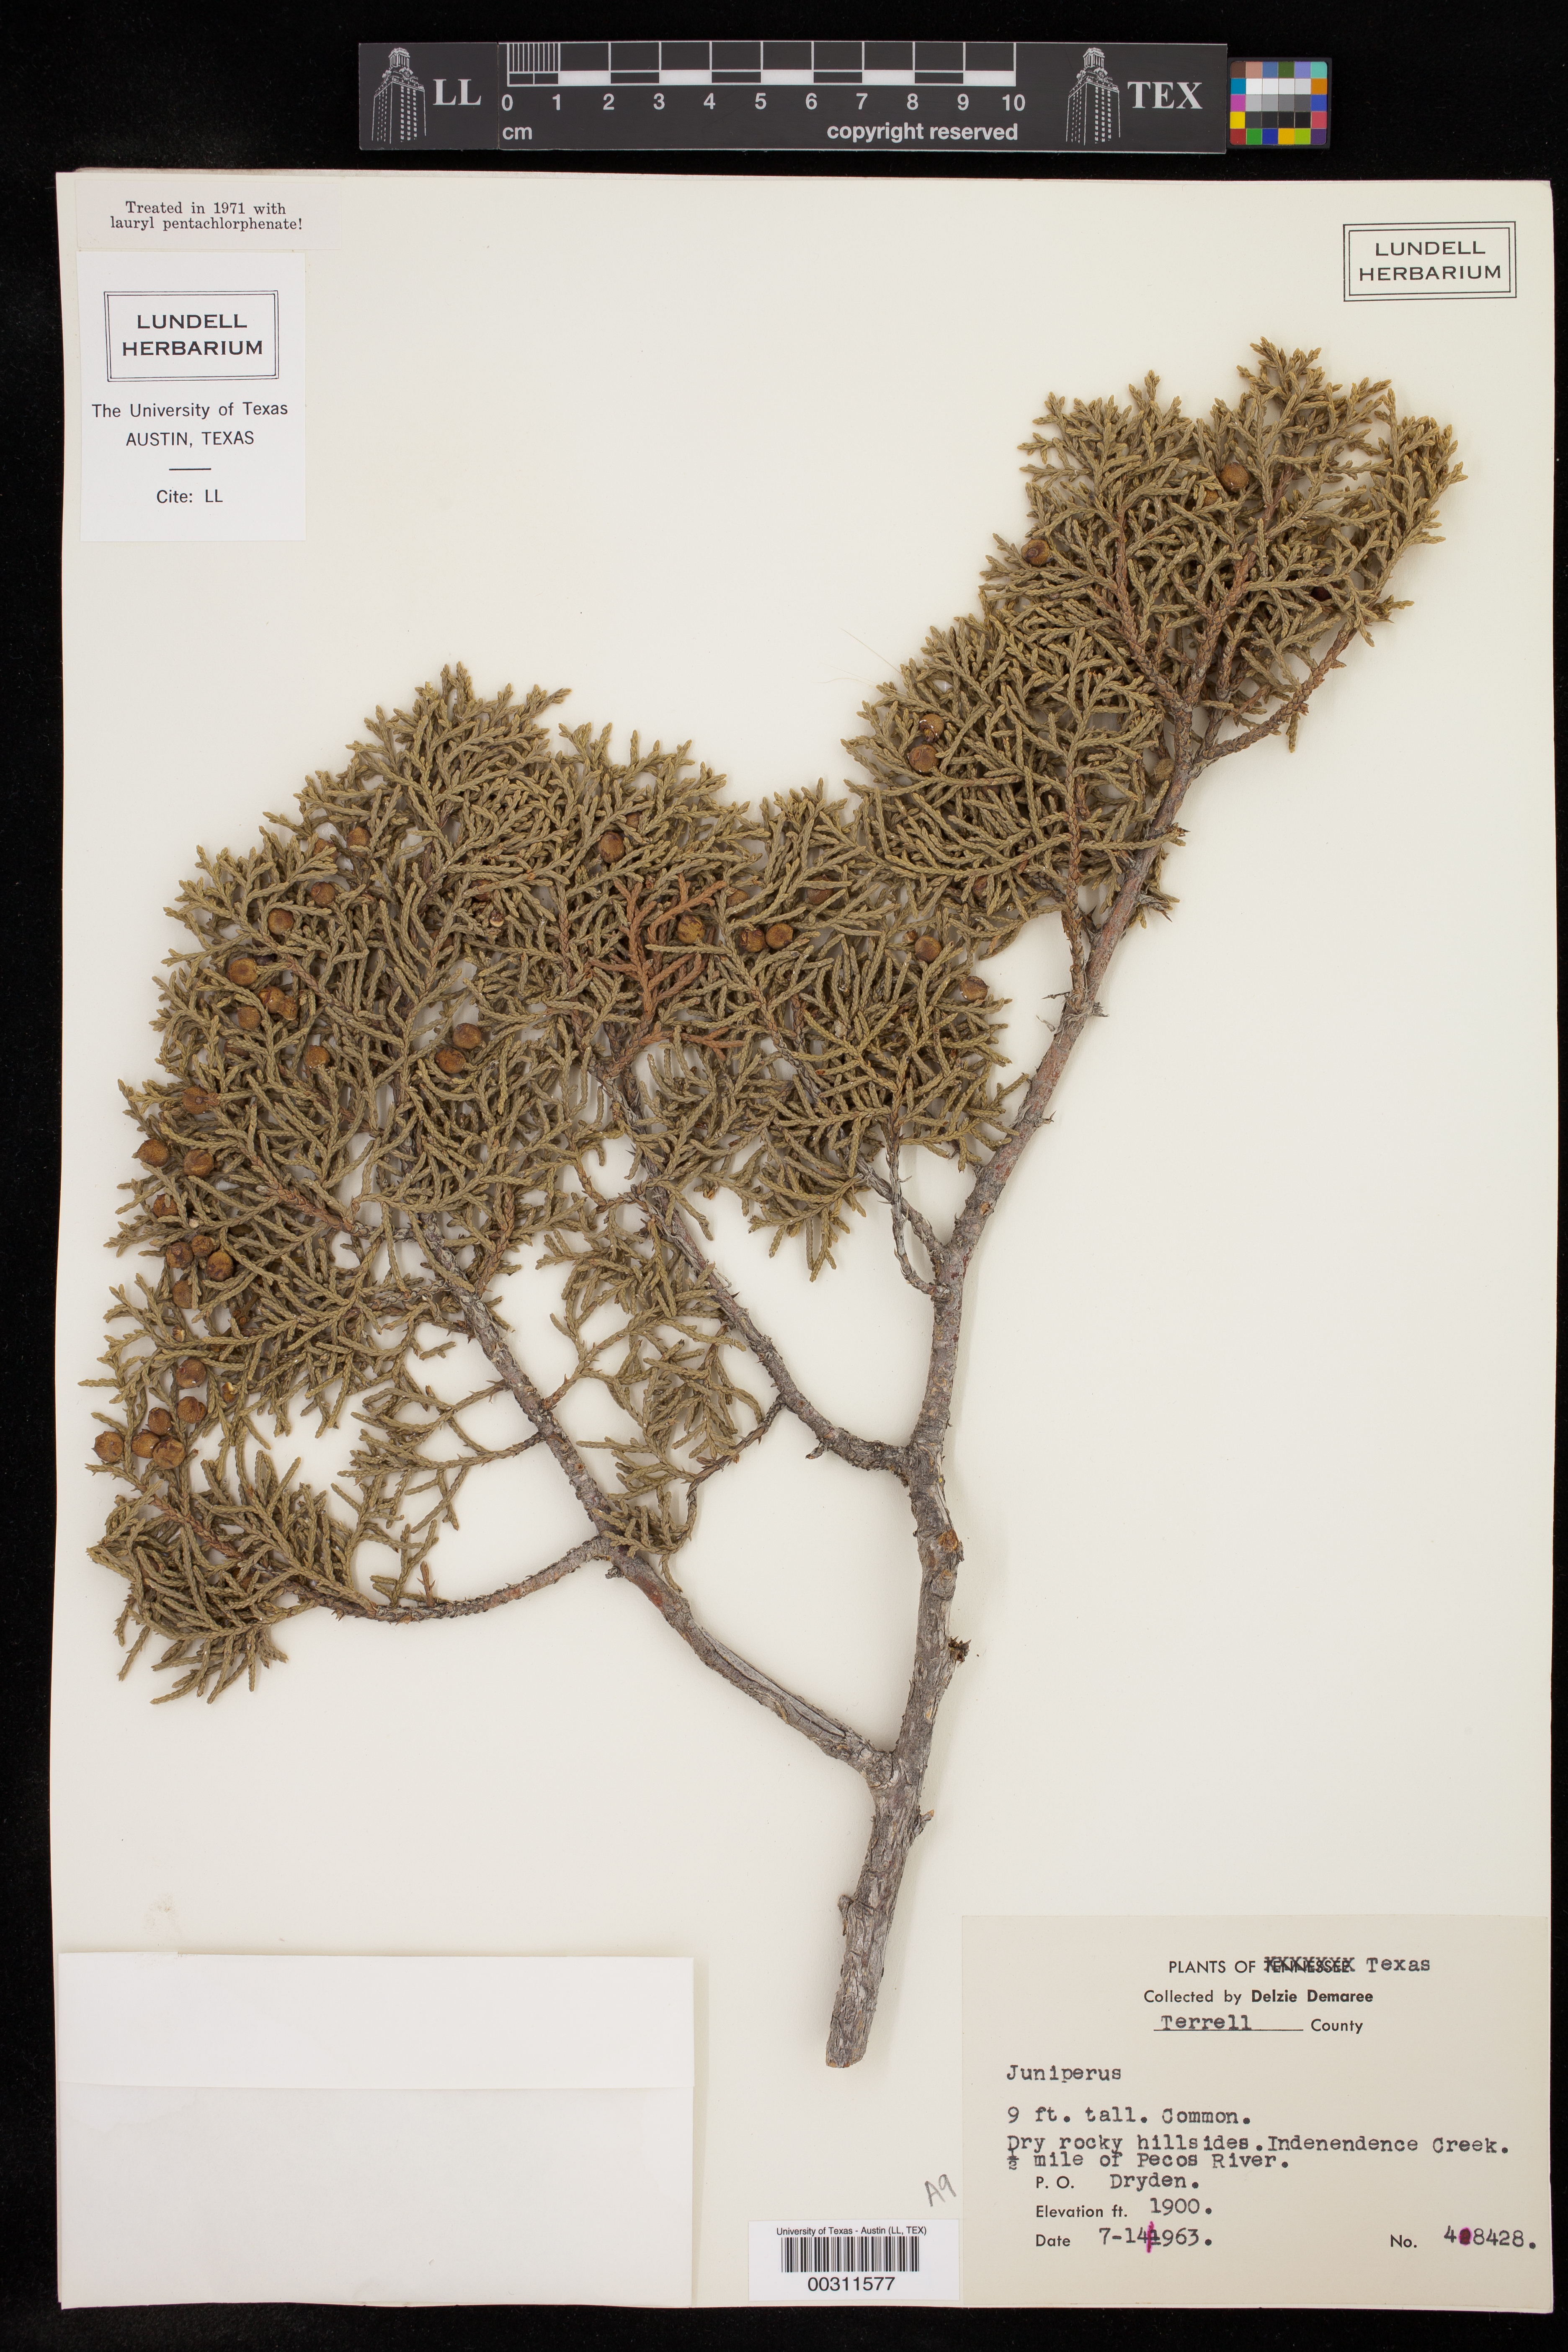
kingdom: Plantae
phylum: Tracheophyta
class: Pinopsida
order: Pinales
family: Cupressaceae
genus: Juniperus
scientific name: Juniperus
